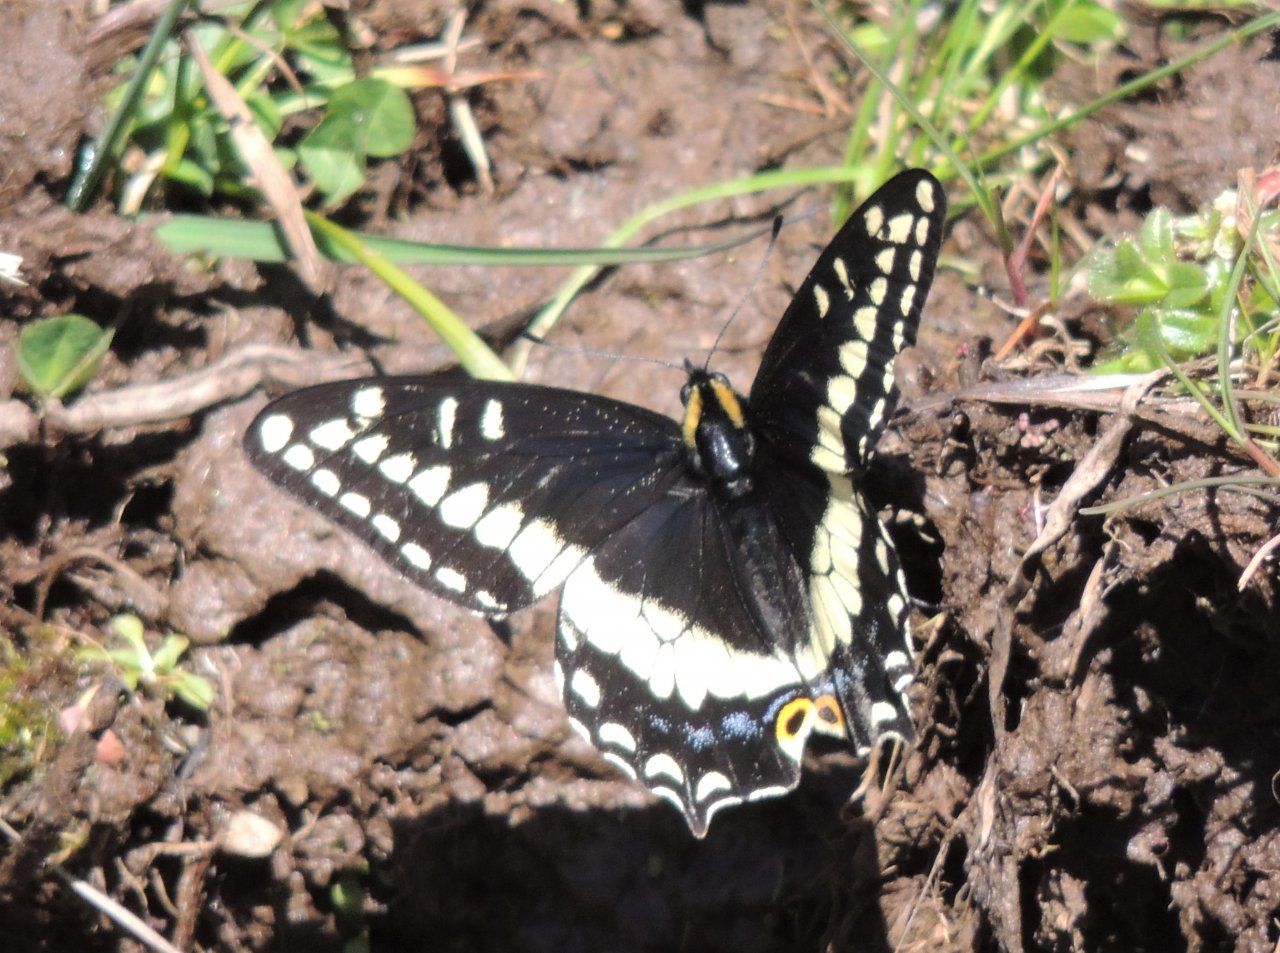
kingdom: Animalia
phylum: Arthropoda
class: Insecta
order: Lepidoptera
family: Papilionidae
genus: Papilio
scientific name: Papilio indra
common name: Indra Swallowtail
